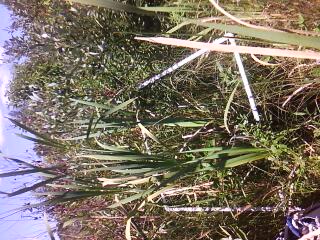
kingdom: Plantae
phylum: Tracheophyta
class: Liliopsida
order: Poales
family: Typhaceae
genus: Typha
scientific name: Typha latifolia
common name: Broadleaf cattail
